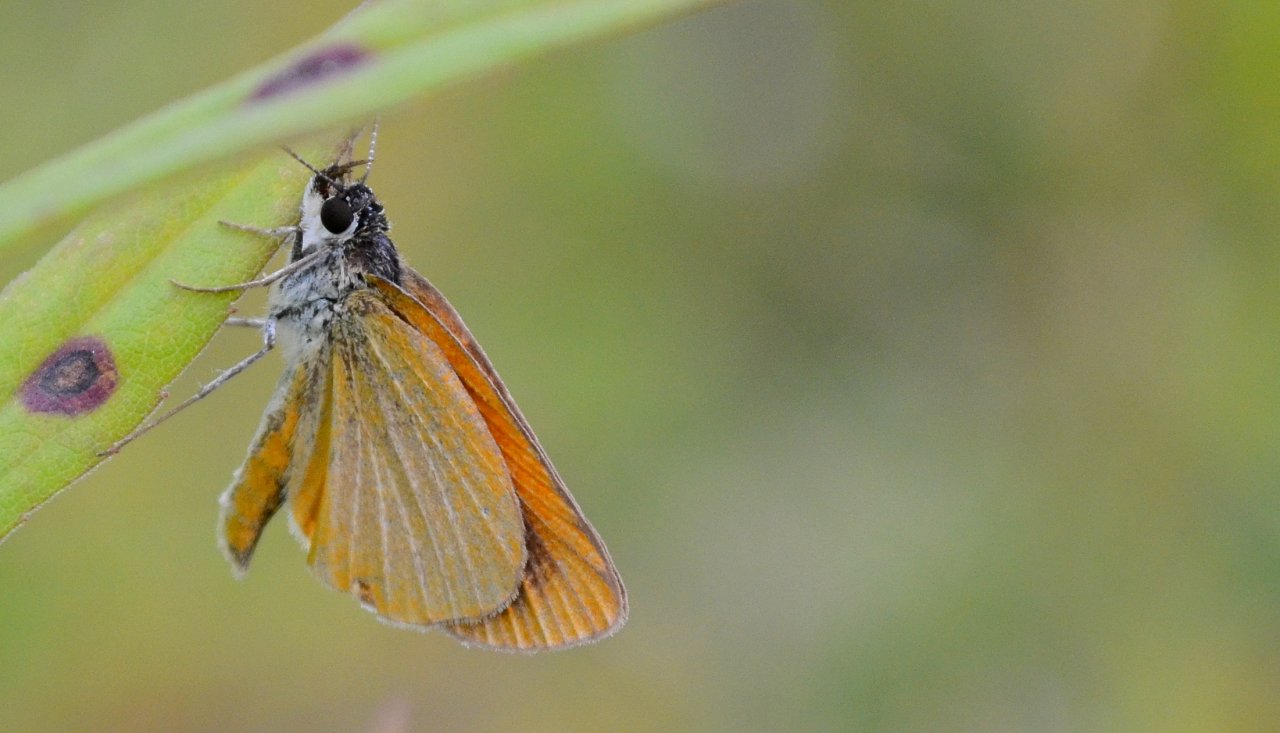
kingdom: Animalia
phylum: Arthropoda
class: Insecta
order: Lepidoptera
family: Hesperiidae
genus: Ancyloxypha
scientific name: Ancyloxypha numitor
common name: Least Skipper
